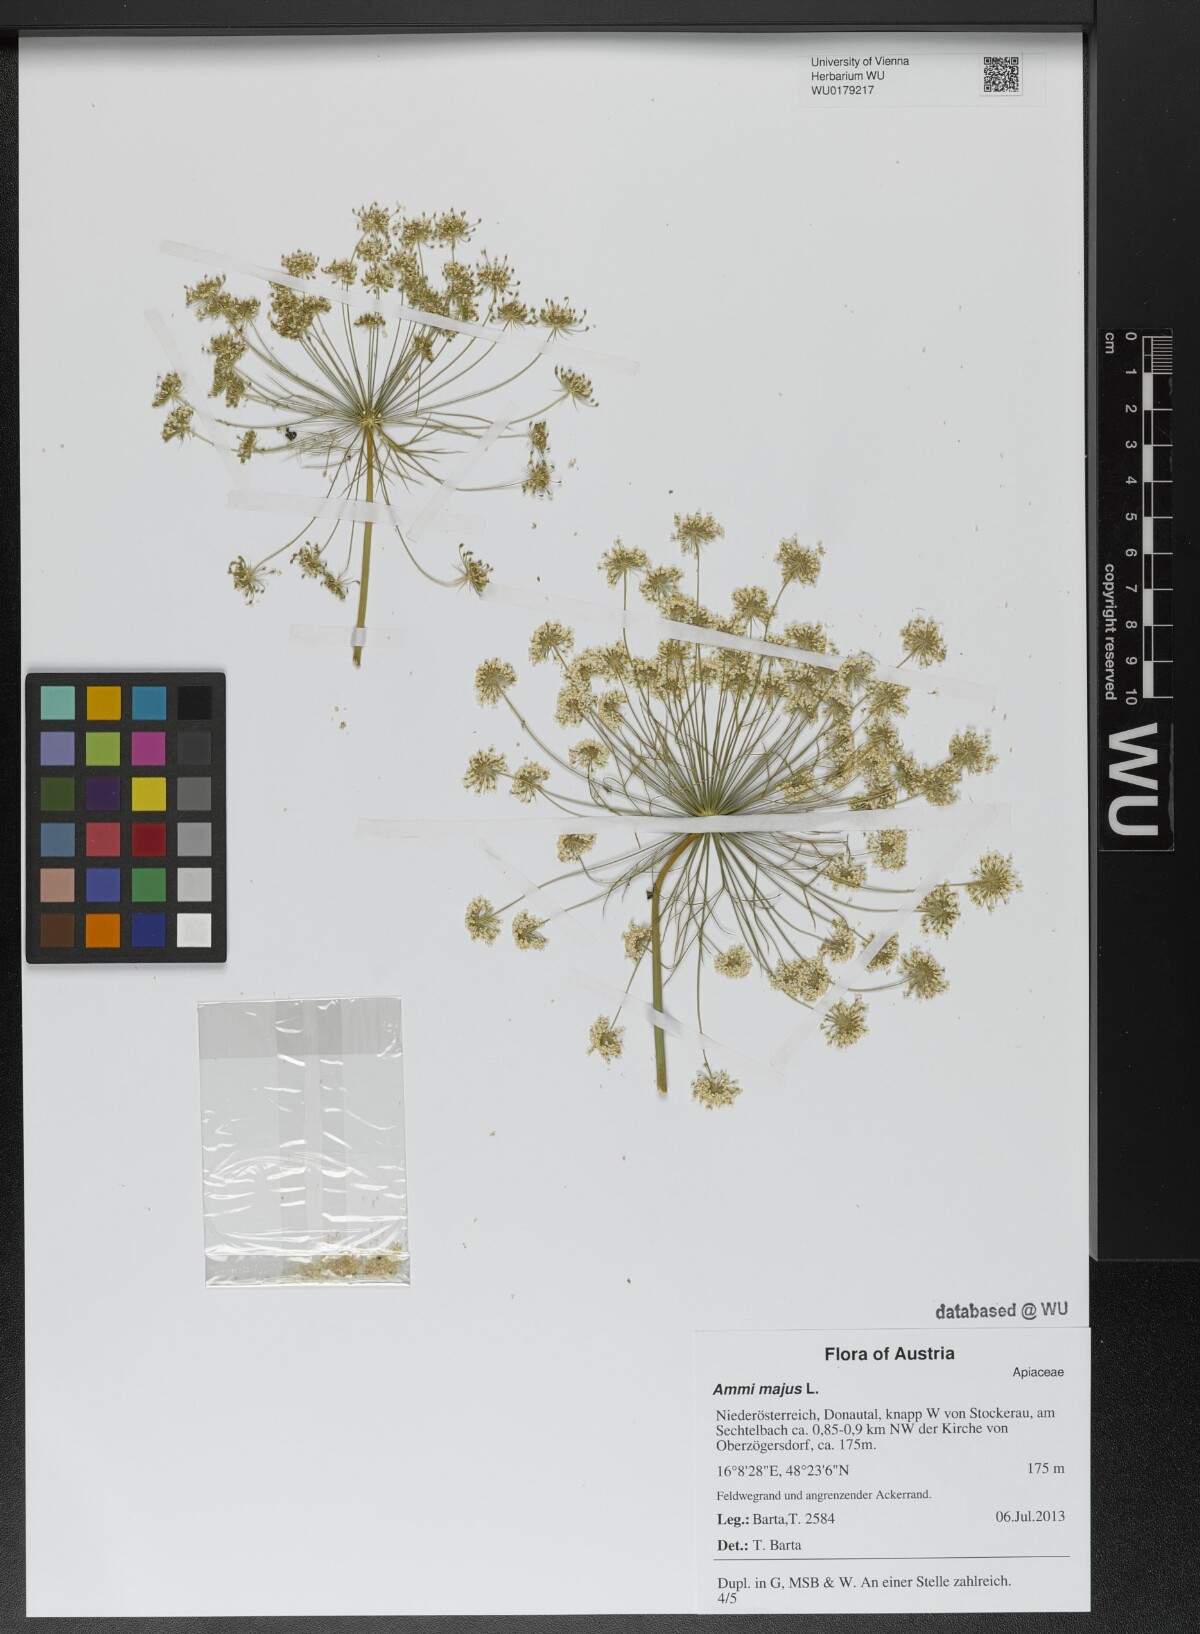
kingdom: Plantae
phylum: Tracheophyta
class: Magnoliopsida
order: Apiales
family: Apiaceae
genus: Ammi
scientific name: Ammi majus
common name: Bullwort
